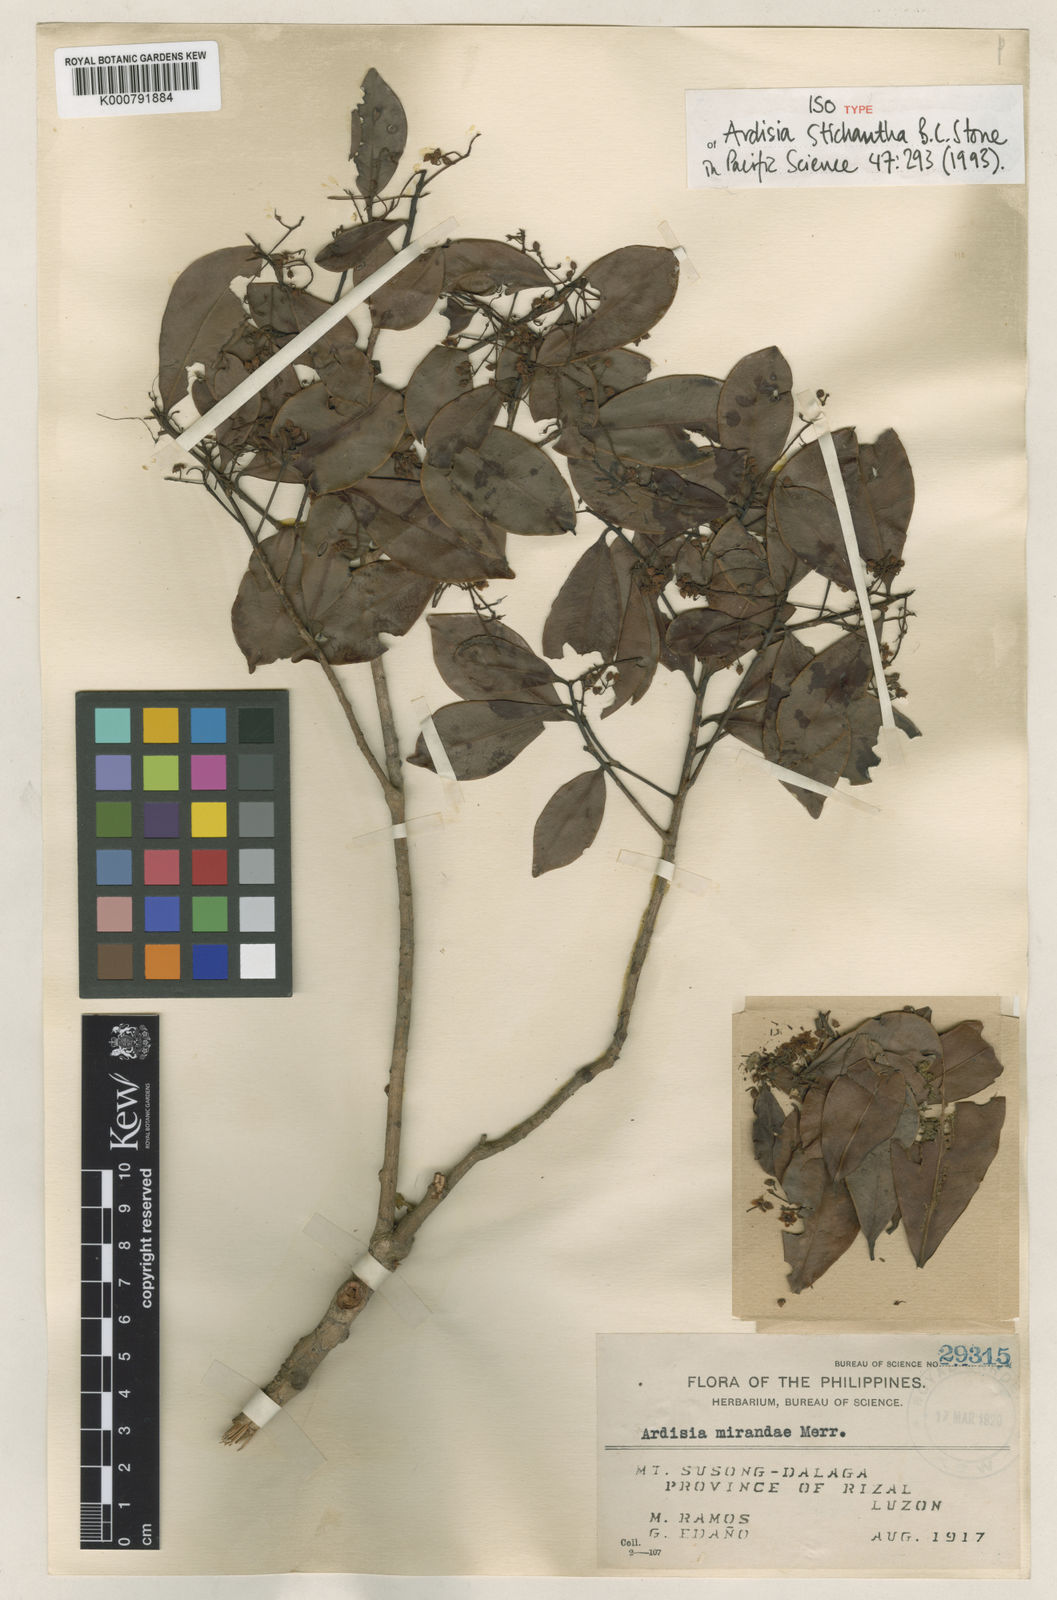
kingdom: Plantae
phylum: Tracheophyta
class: Magnoliopsida
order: Ericales
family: Primulaceae
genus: Ardisia
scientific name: Ardisia stichantha
